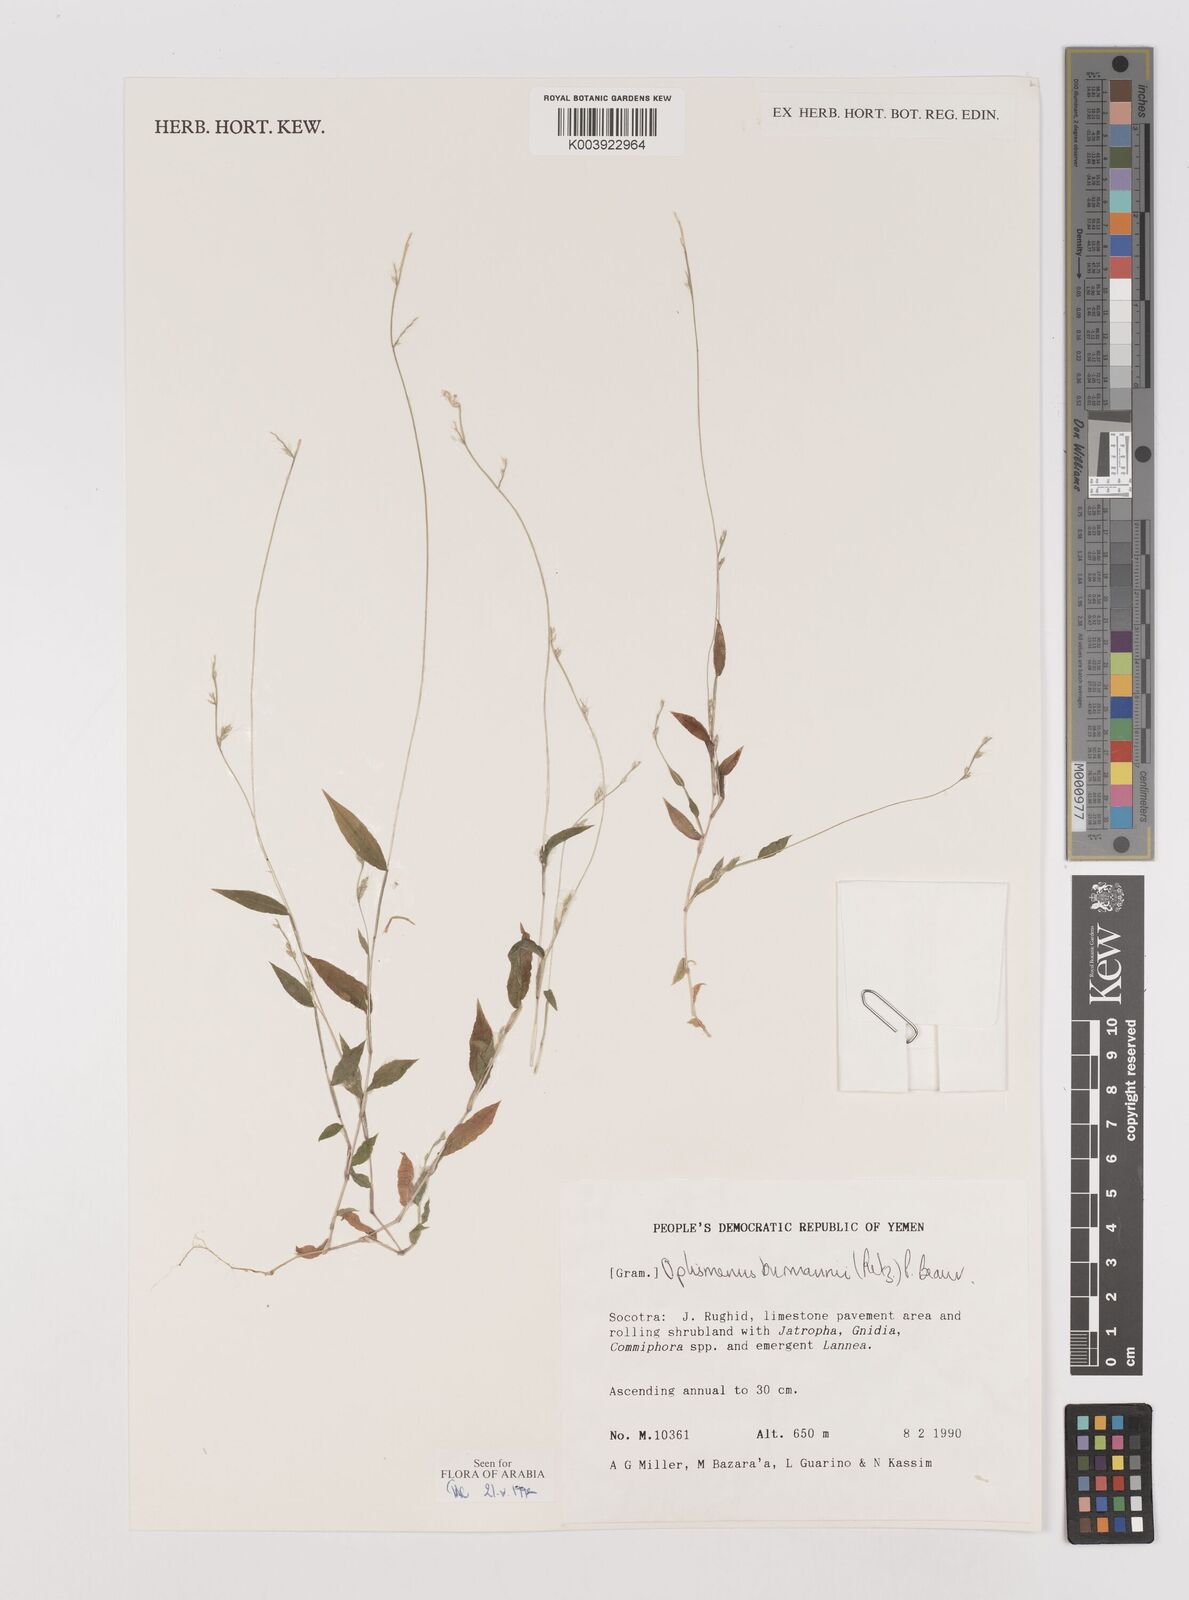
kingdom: Plantae
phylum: Tracheophyta
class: Liliopsida
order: Poales
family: Poaceae
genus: Oplismenus
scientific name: Oplismenus burmanni
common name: Burmann's basketgrass
